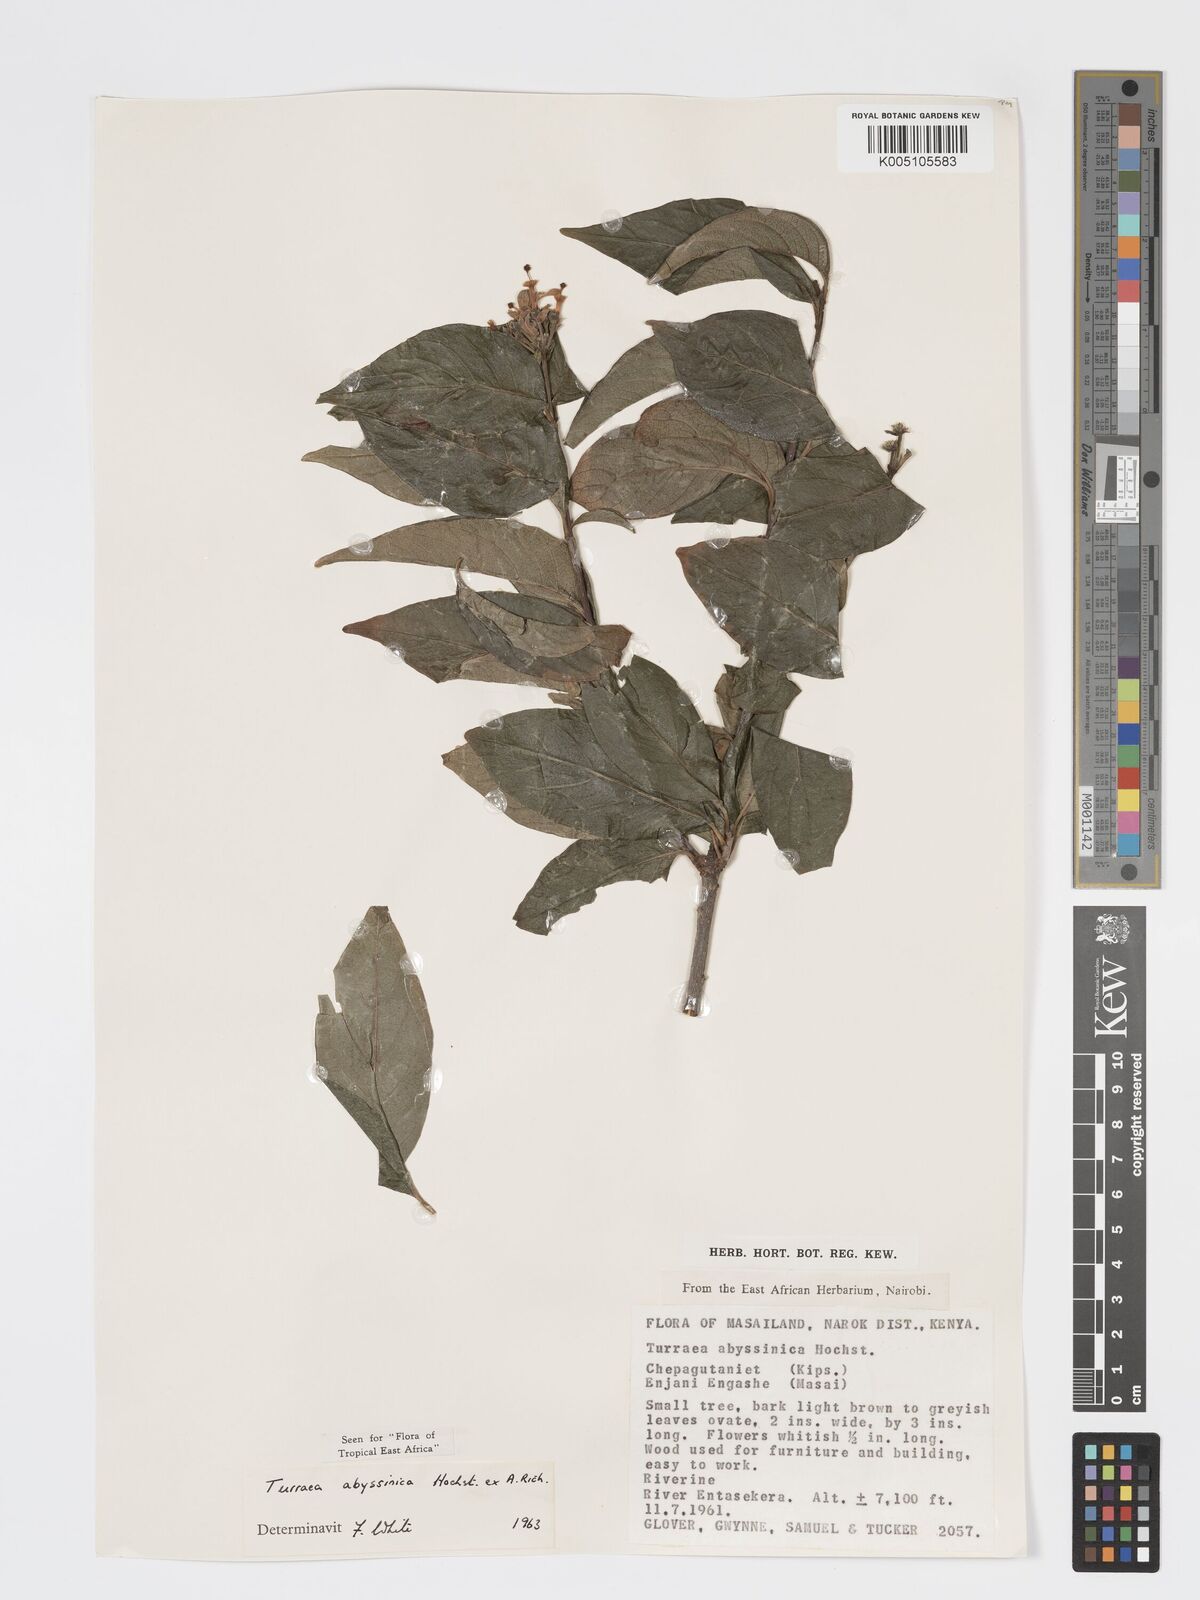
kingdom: Plantae
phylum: Tracheophyta
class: Magnoliopsida
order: Sapindales
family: Meliaceae
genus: Turraea
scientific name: Turraea abyssinica
